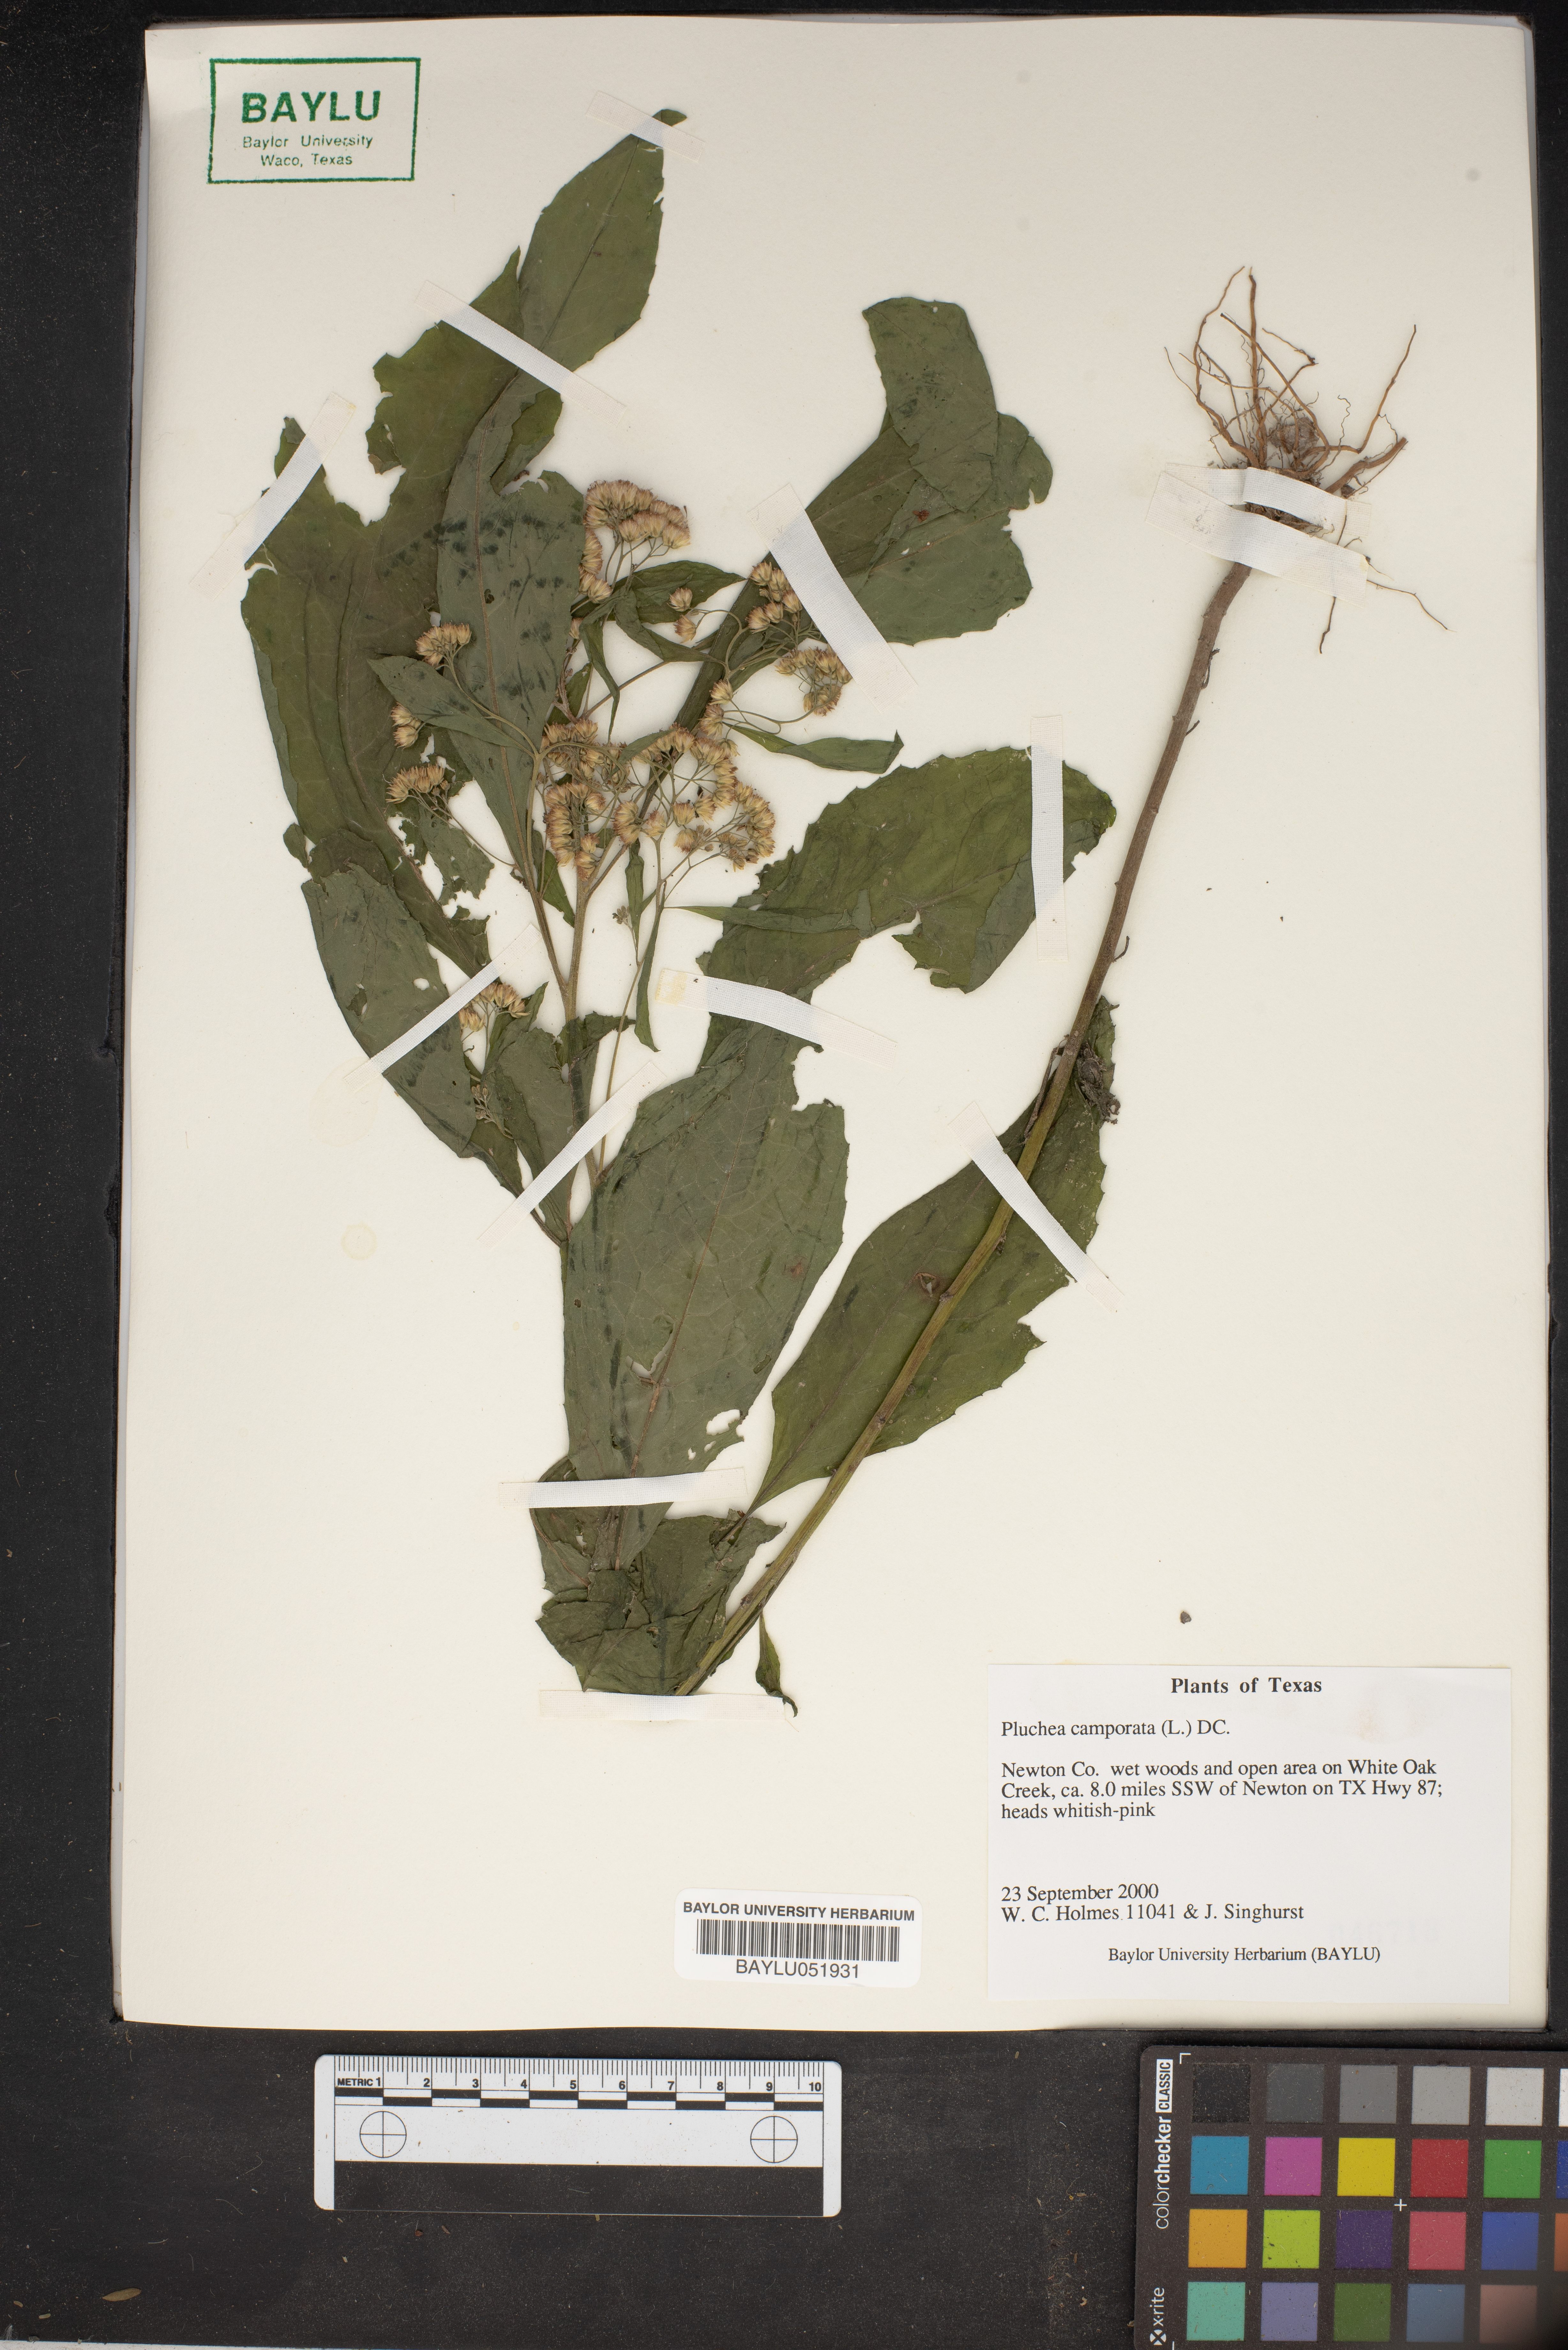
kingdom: Plantae
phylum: Tracheophyta
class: Magnoliopsida
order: Asterales
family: Asteraceae
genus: Pluchea
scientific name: Pluchea camphorata
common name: Camphor pluchea
